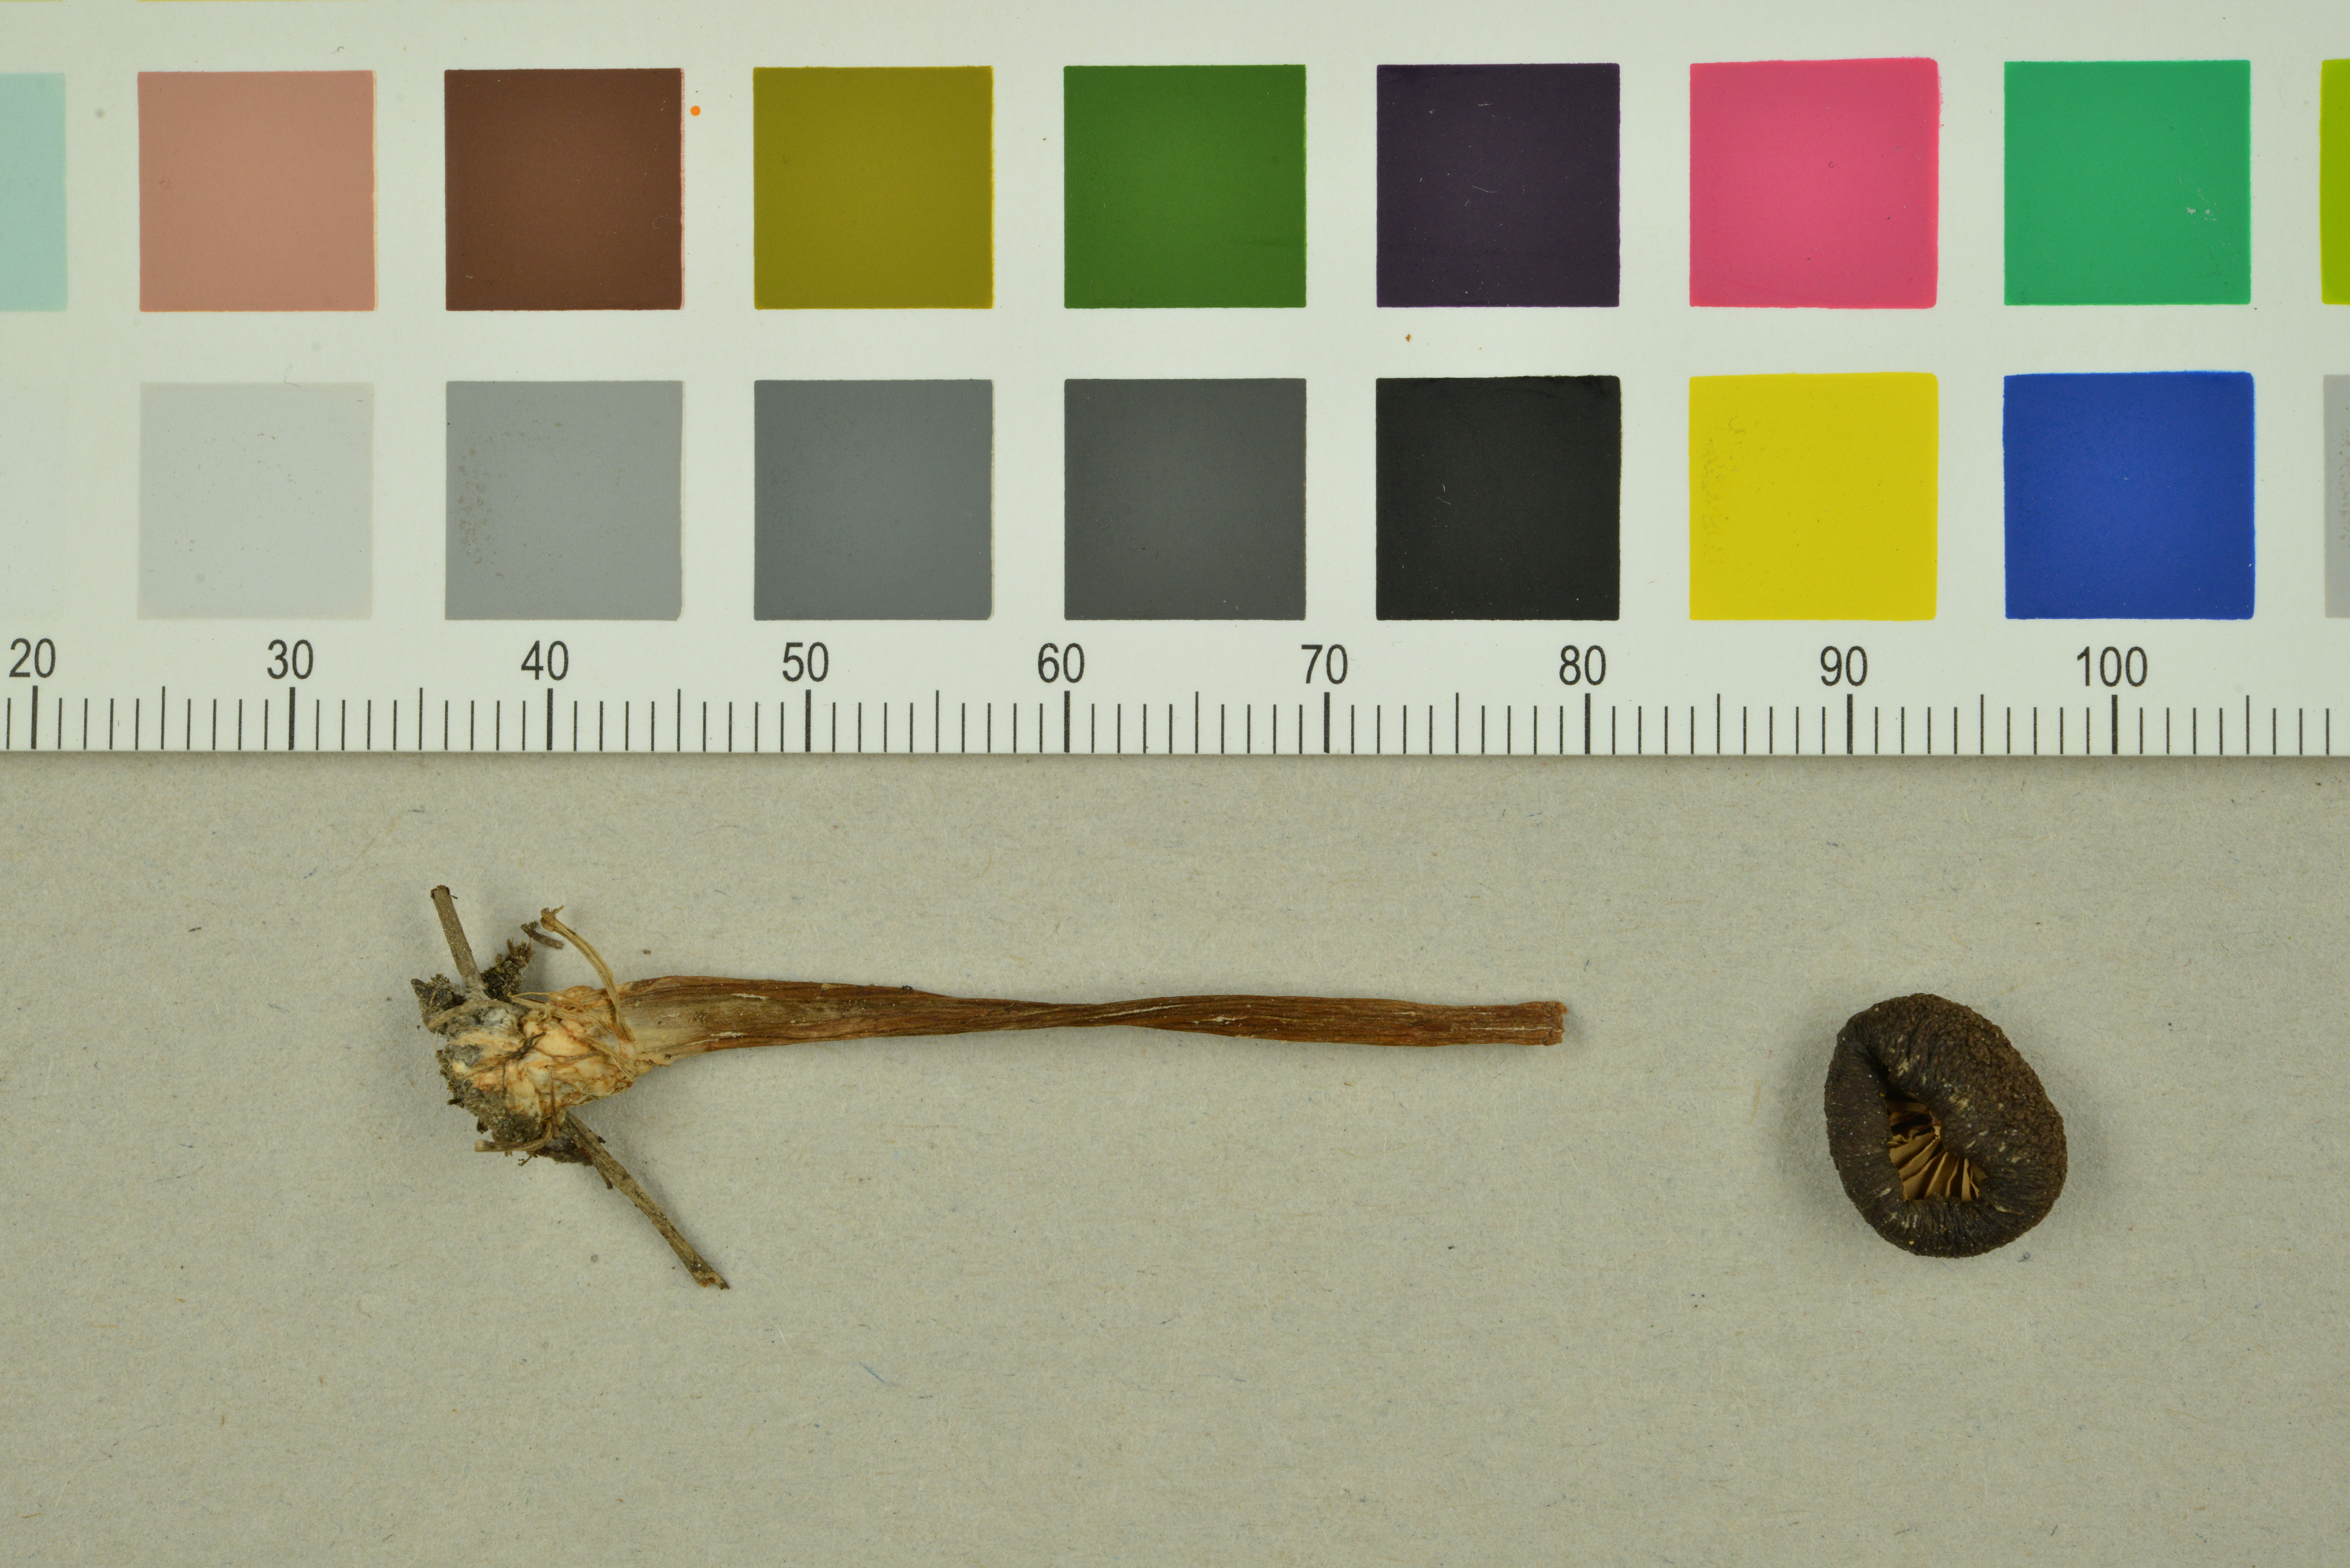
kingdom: Fungi
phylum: Basidiomycota
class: Agaricomycetes
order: Agaricales
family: Entolomataceae
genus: Entoloma
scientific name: Entoloma turci
